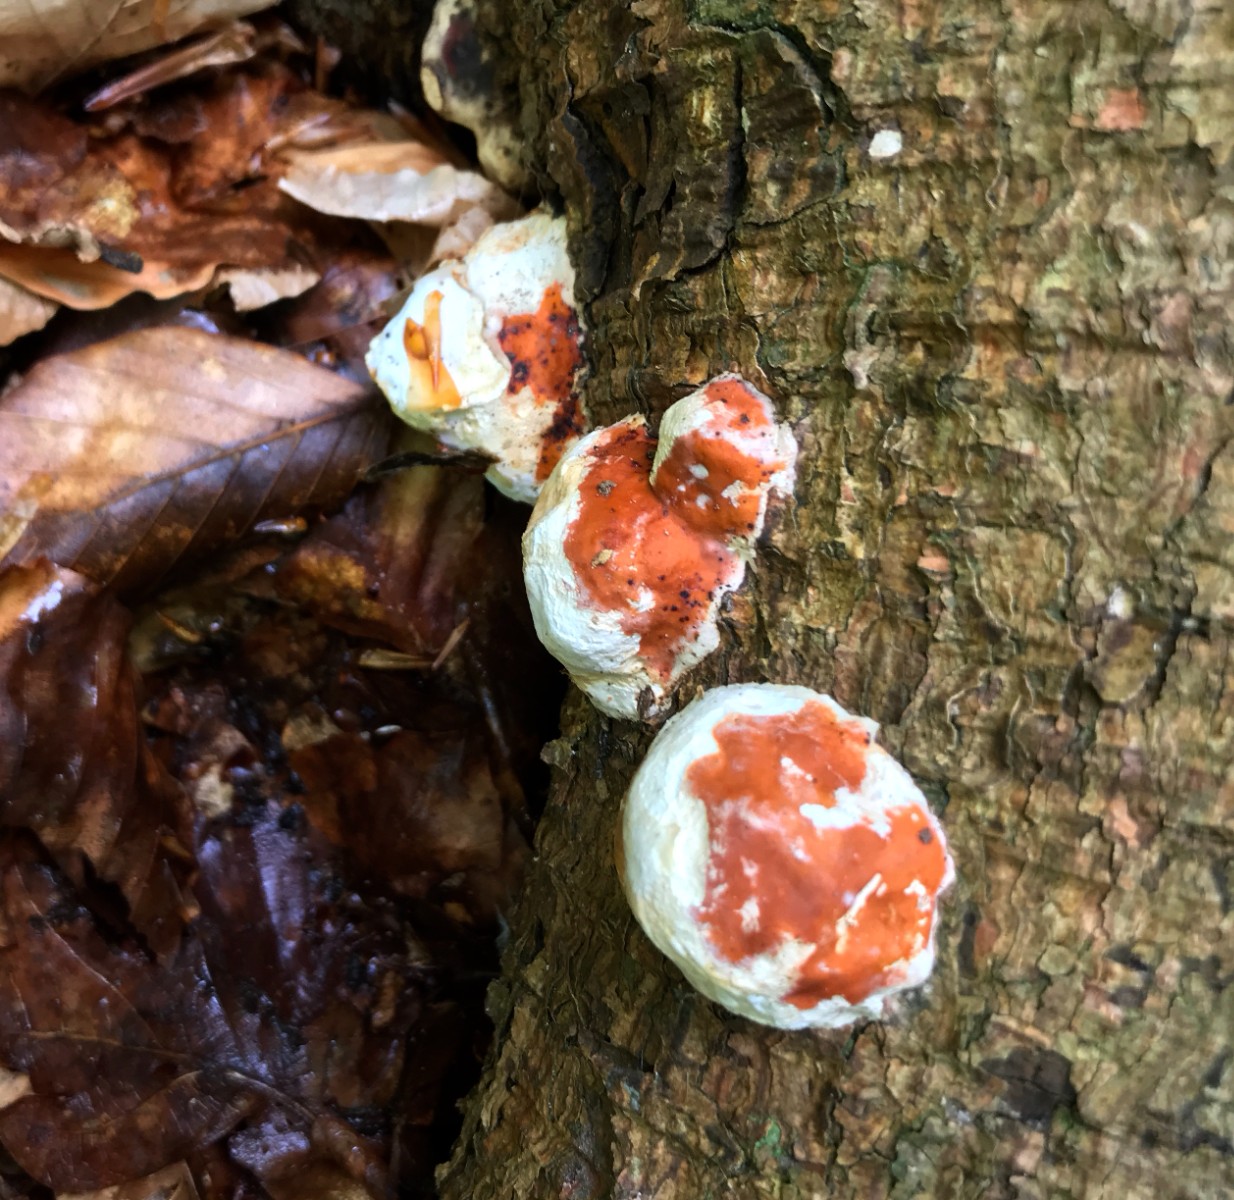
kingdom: Fungi
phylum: Basidiomycota
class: Agaricomycetes
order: Polyporales
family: Fomitopsidaceae
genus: Fomitopsis
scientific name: Fomitopsis pinicola
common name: randbæltet hovporesvamp
